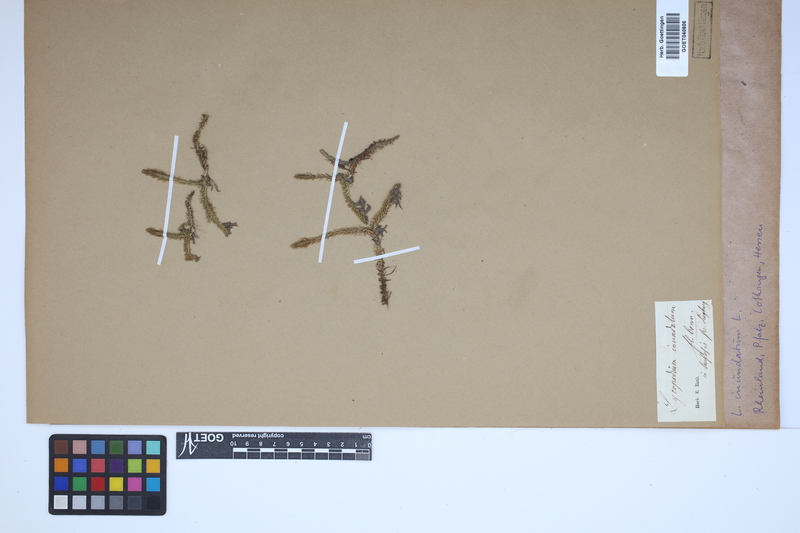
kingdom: Plantae
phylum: Tracheophyta
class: Lycopodiopsida
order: Lycopodiales
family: Lycopodiaceae
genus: Lycopodiella
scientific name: Lycopodiella inundata
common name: Marsh clubmoss
